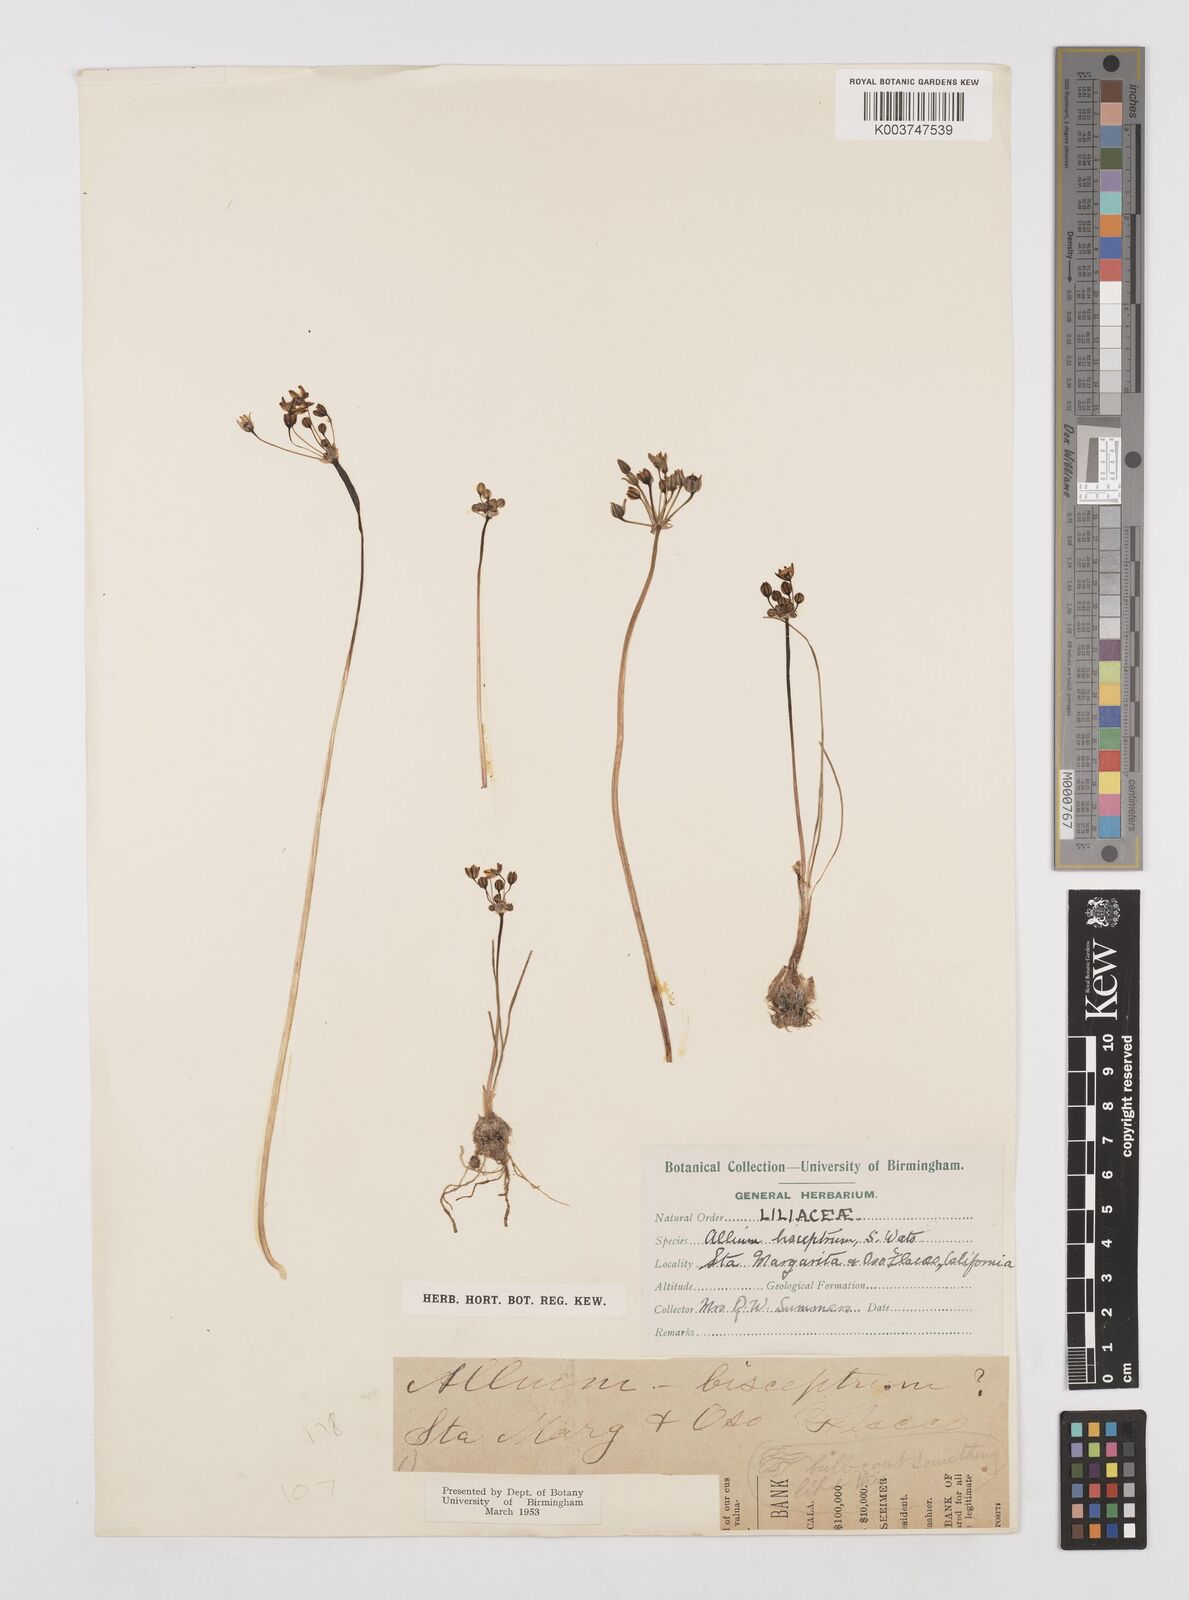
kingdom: Plantae
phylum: Tracheophyta
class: Liliopsida
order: Asparagales
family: Amaryllidaceae
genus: Allium
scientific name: Allium bisceptrum
